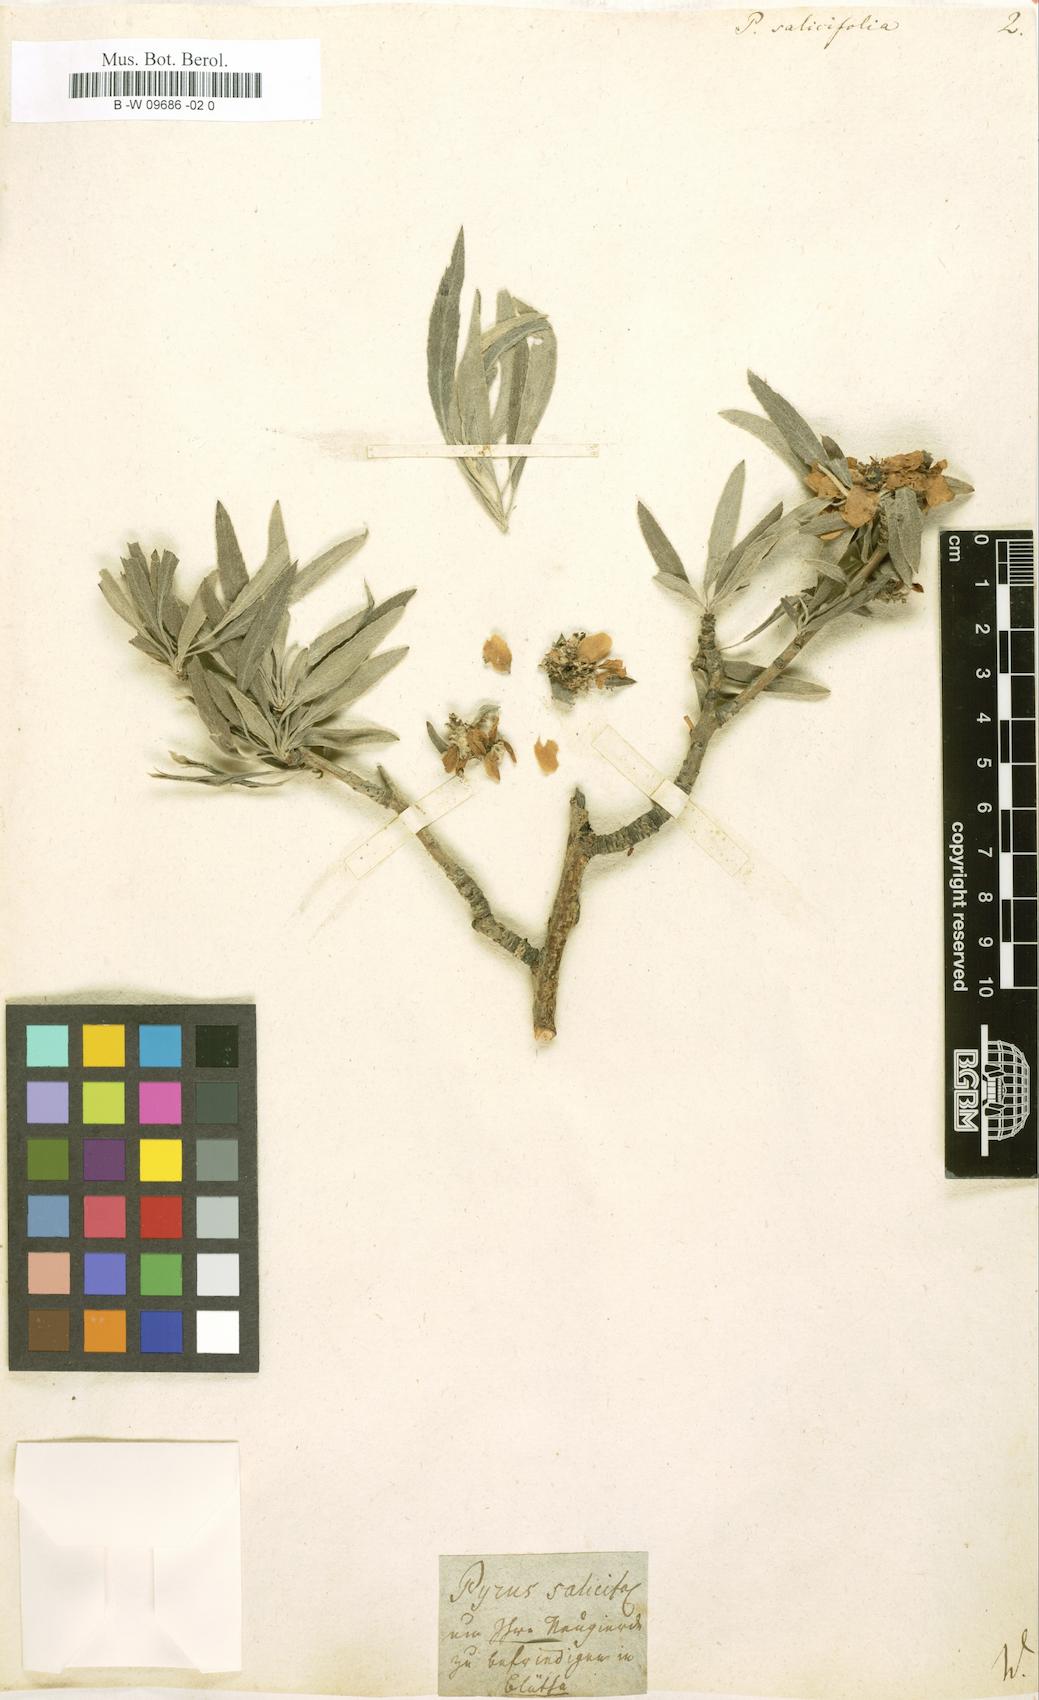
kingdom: Plantae
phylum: Tracheophyta
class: Magnoliopsida
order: Rosales
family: Rosaceae
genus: Pyrus
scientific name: Pyrus salicifolia
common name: Willow-leaved pear
